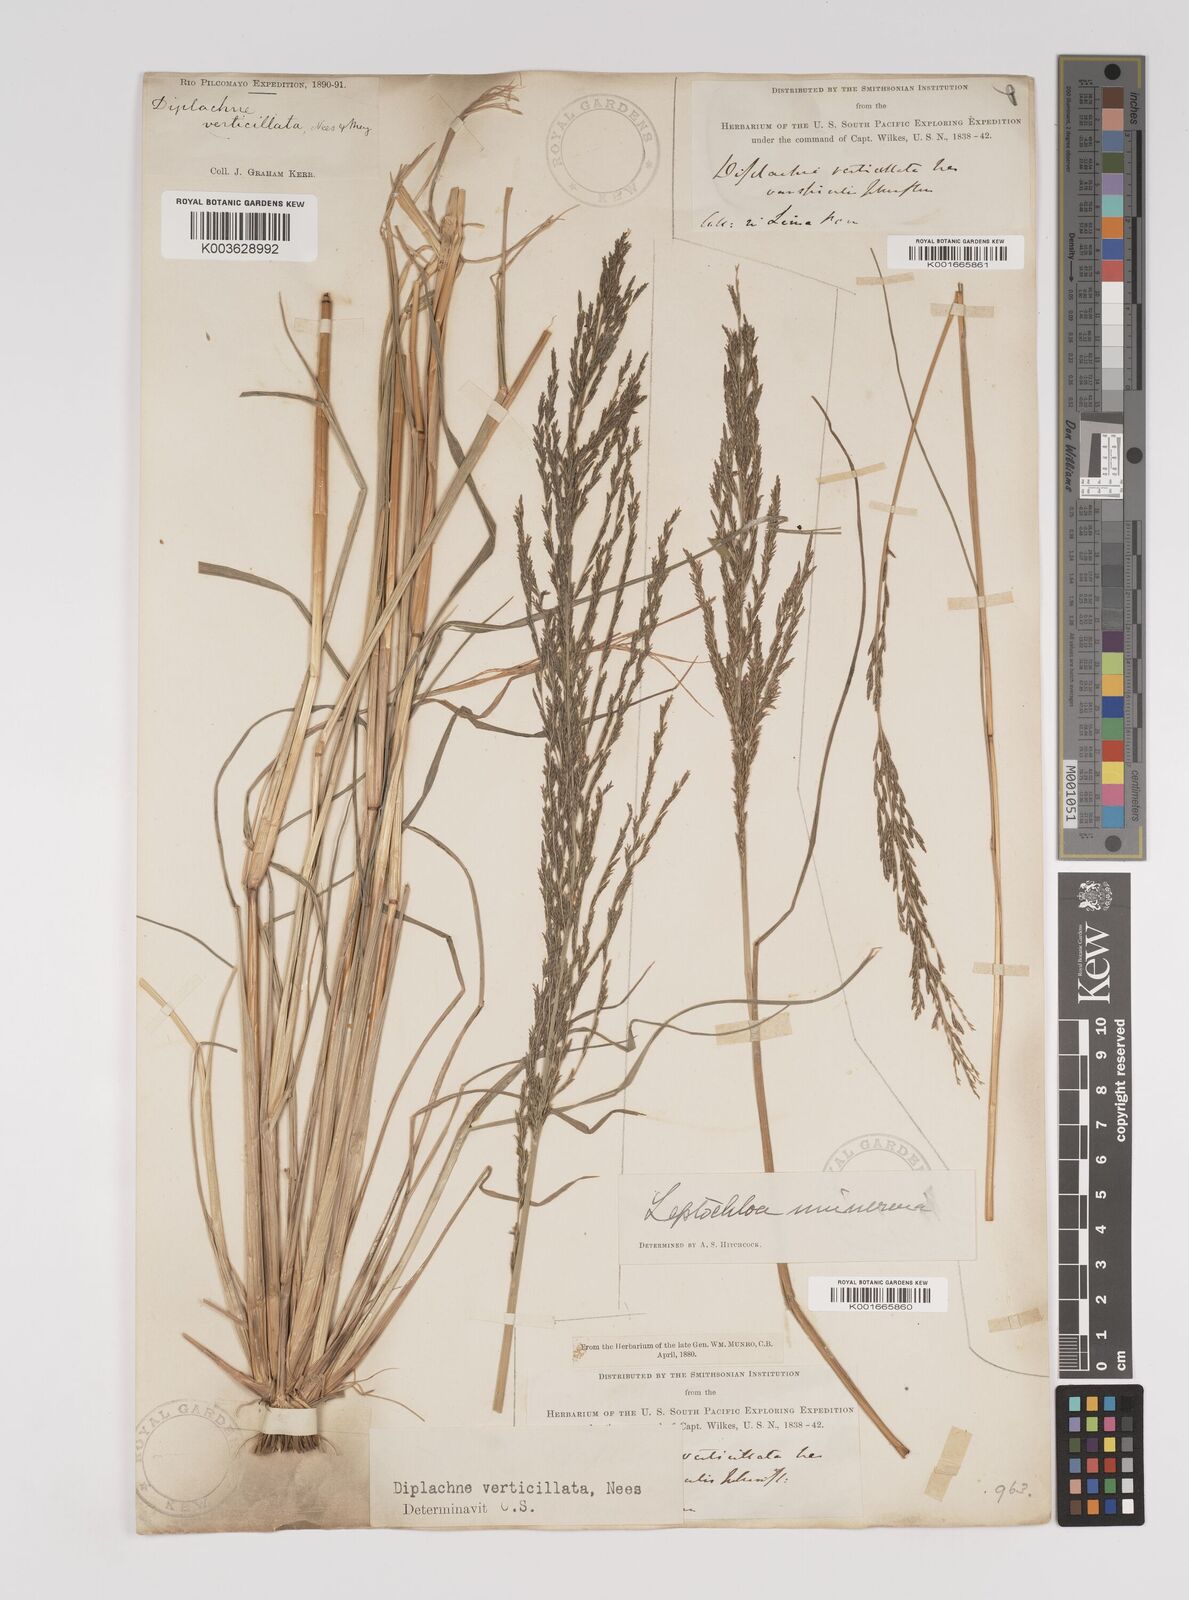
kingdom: Plantae
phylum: Tracheophyta
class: Liliopsida
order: Poales
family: Poaceae
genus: Diplachne
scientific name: Diplachne fusca
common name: Brown beetle grass
